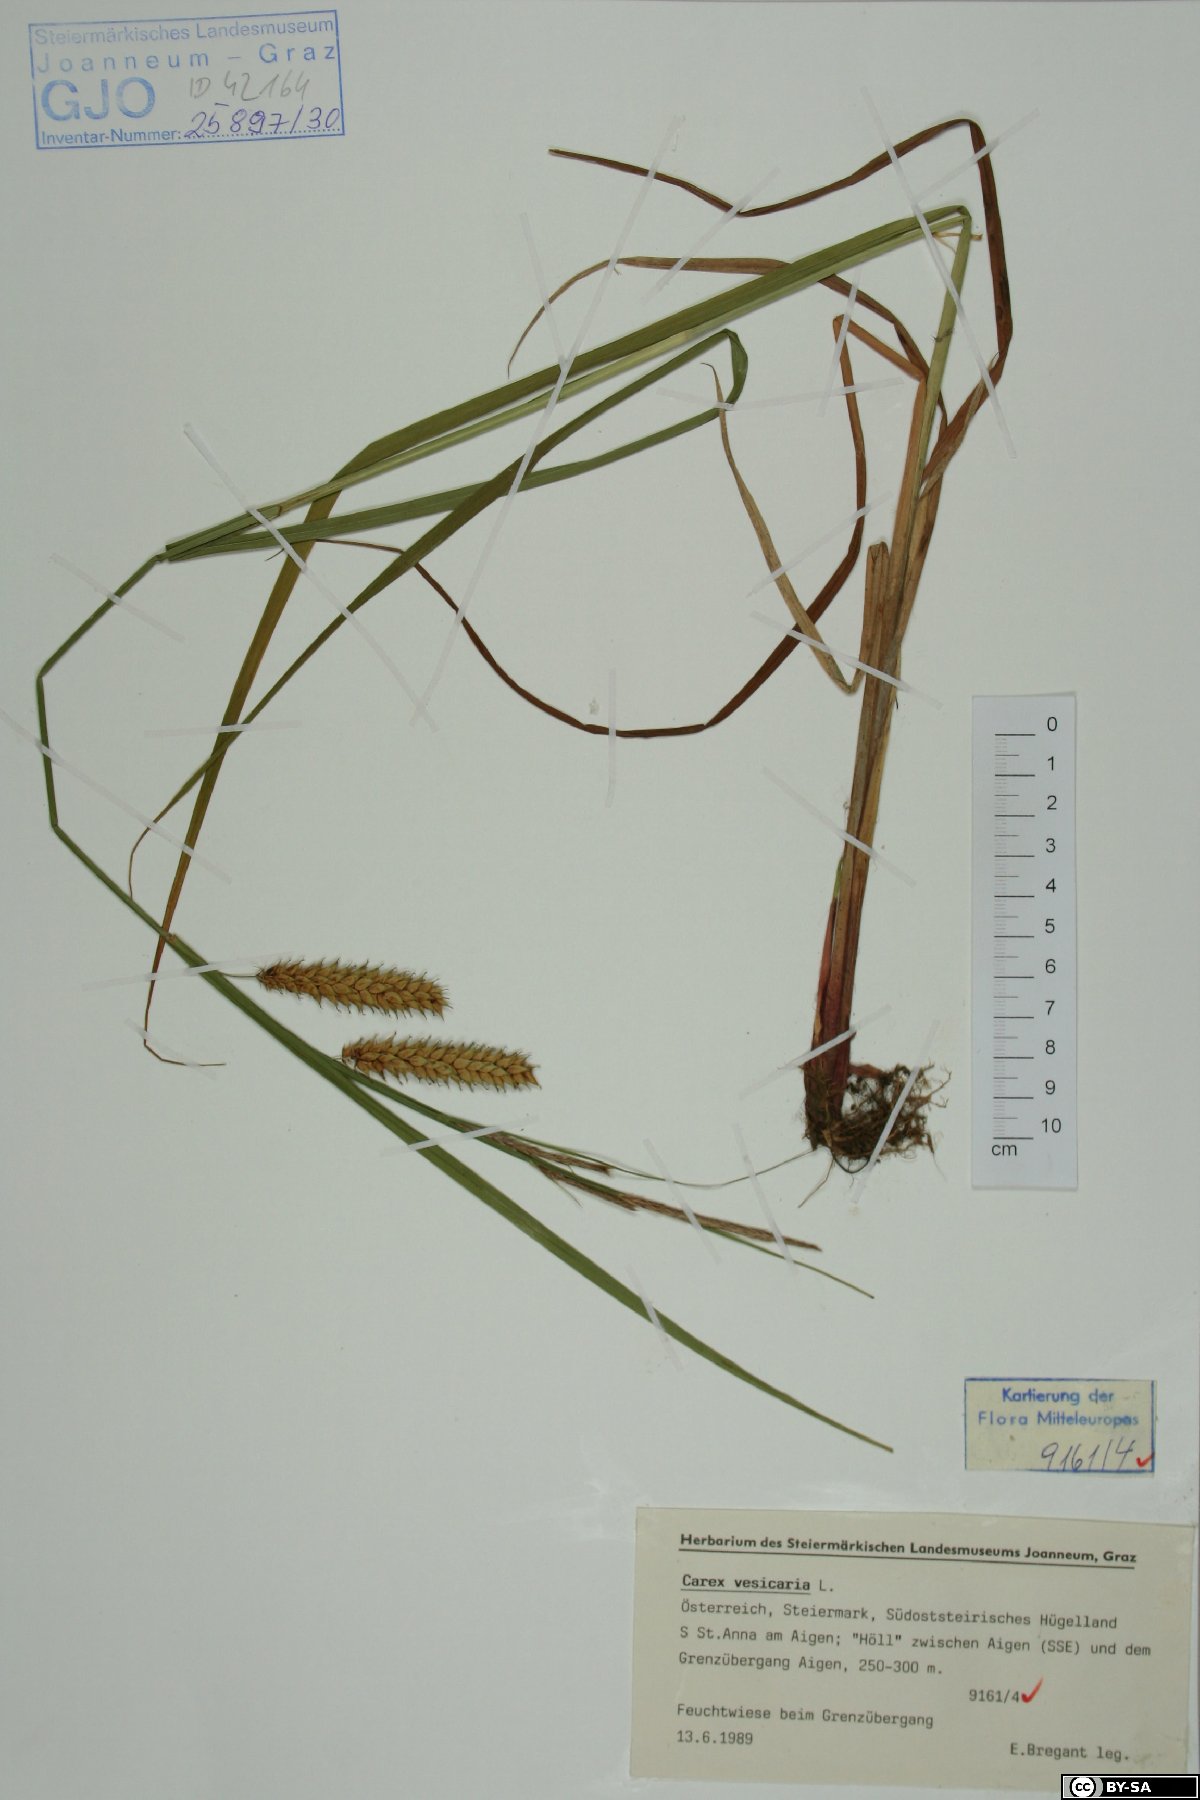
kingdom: Plantae
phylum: Tracheophyta
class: Liliopsida
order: Poales
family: Cyperaceae
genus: Carex
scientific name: Carex vesicaria
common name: Bladder-sedge
